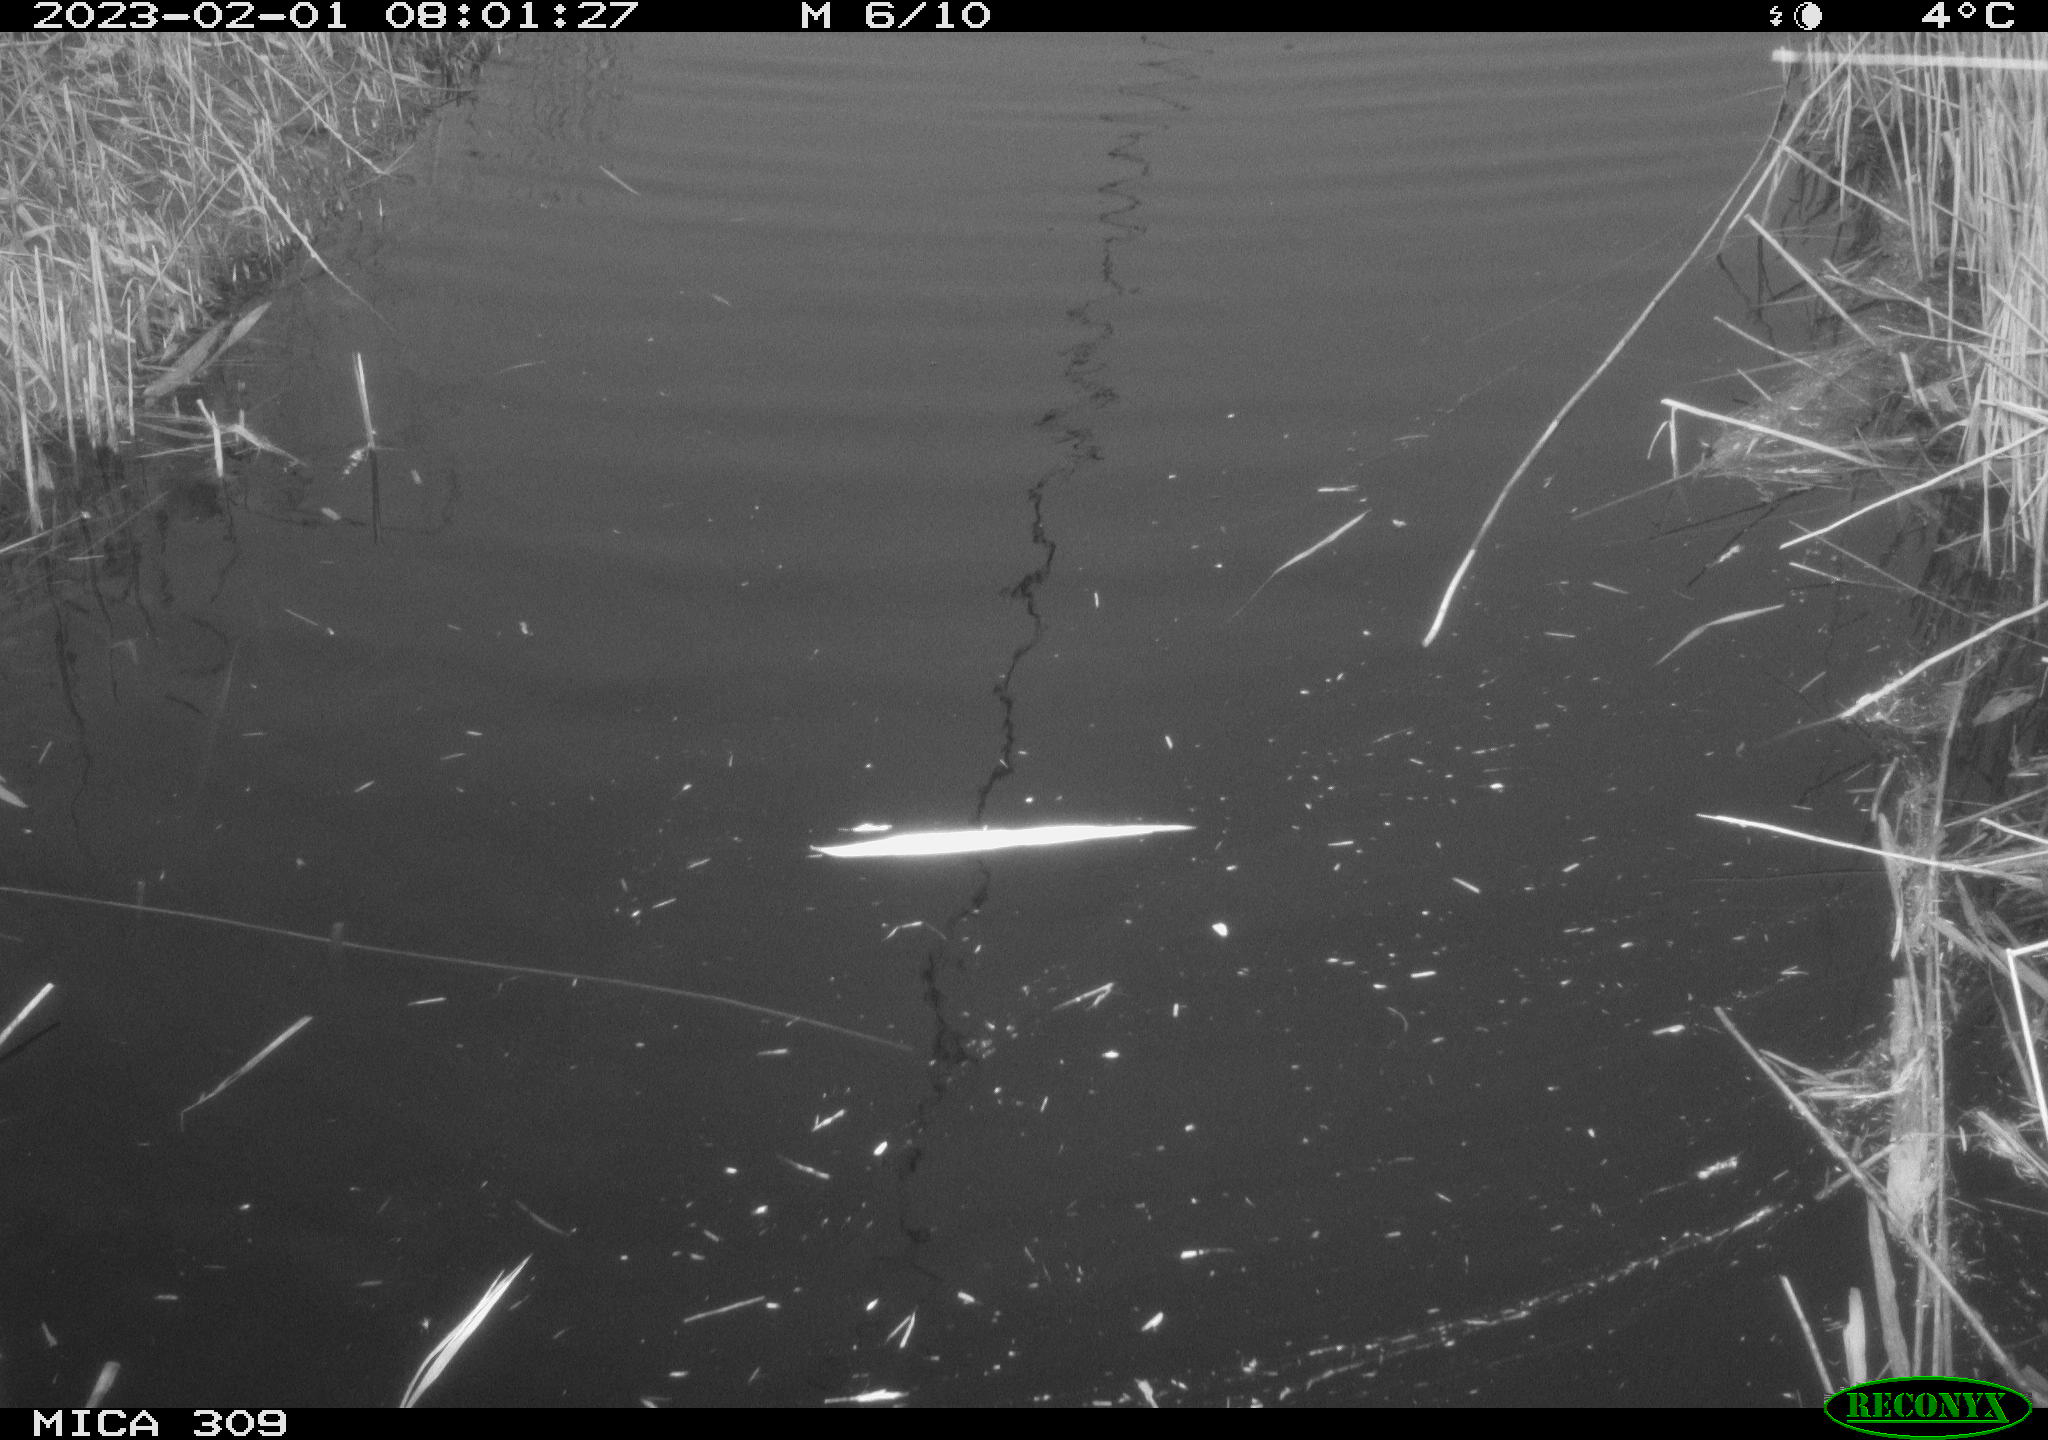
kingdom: Animalia
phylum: Chordata
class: Aves
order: Gruiformes
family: Rallidae
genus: Fulica
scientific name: Fulica atra
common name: Eurasian coot
